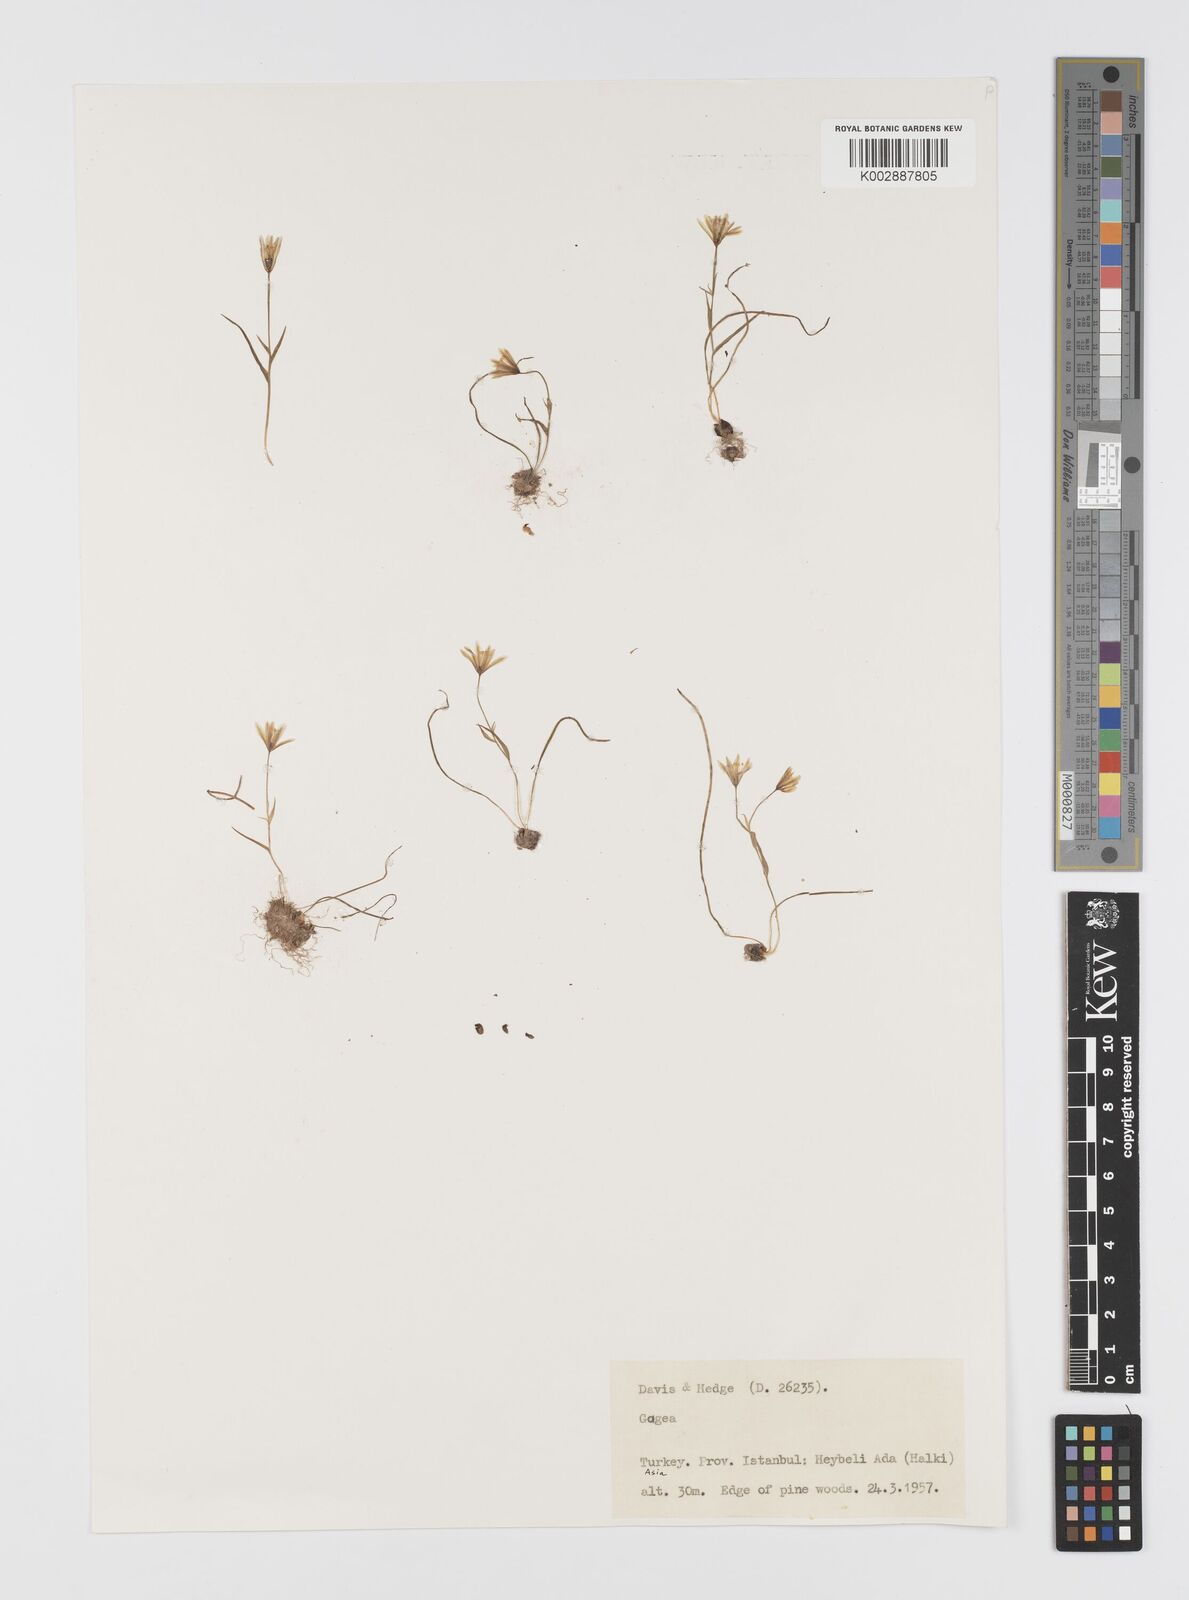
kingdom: Plantae
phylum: Tracheophyta
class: Liliopsida
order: Liliales
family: Liliaceae
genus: Gagea
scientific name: Gagea longifolia
